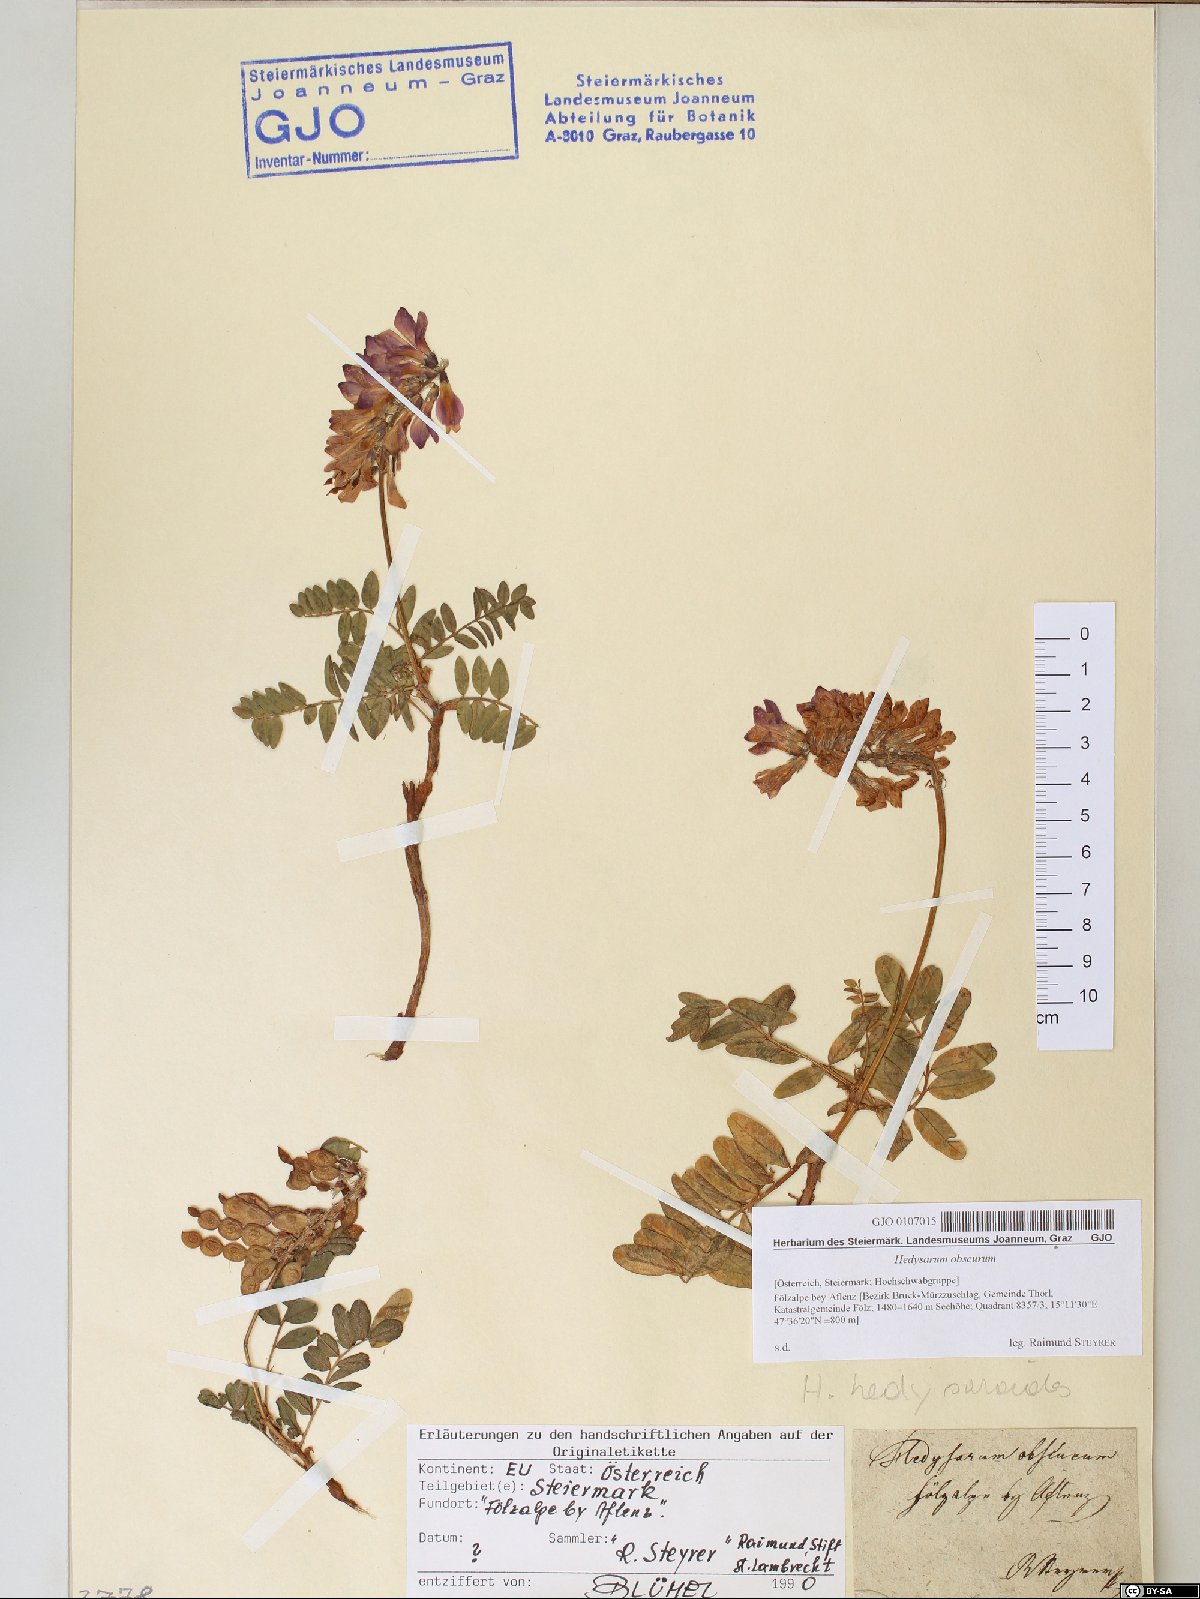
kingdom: Plantae
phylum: Tracheophyta
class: Magnoliopsida
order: Fabales
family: Fabaceae
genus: Hedysarum
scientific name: Hedysarum hedysaroides
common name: Alpine french-honeysuckle
